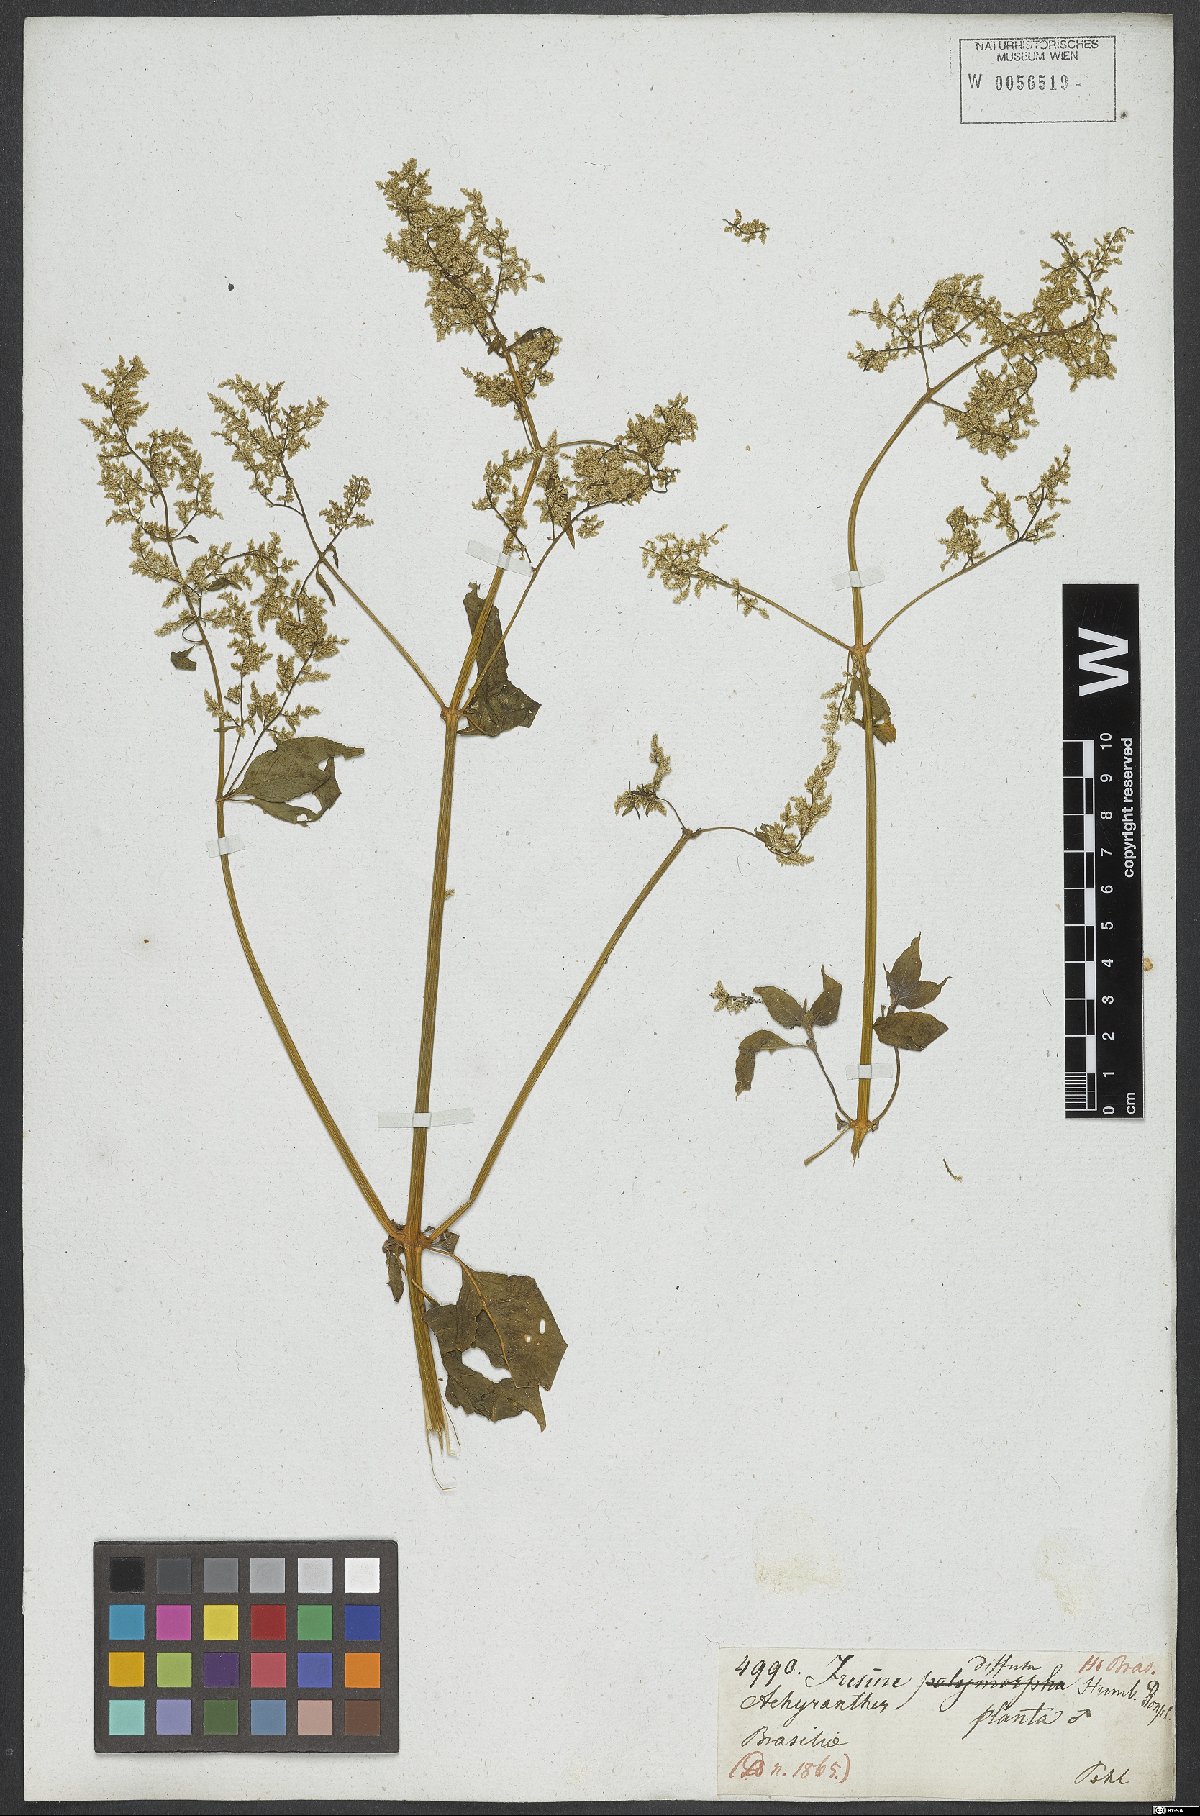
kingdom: Plantae
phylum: Tracheophyta
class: Magnoliopsida
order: Caryophyllales
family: Amaranthaceae
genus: Iresine
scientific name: Iresine diffusa
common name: Juba's-bush
